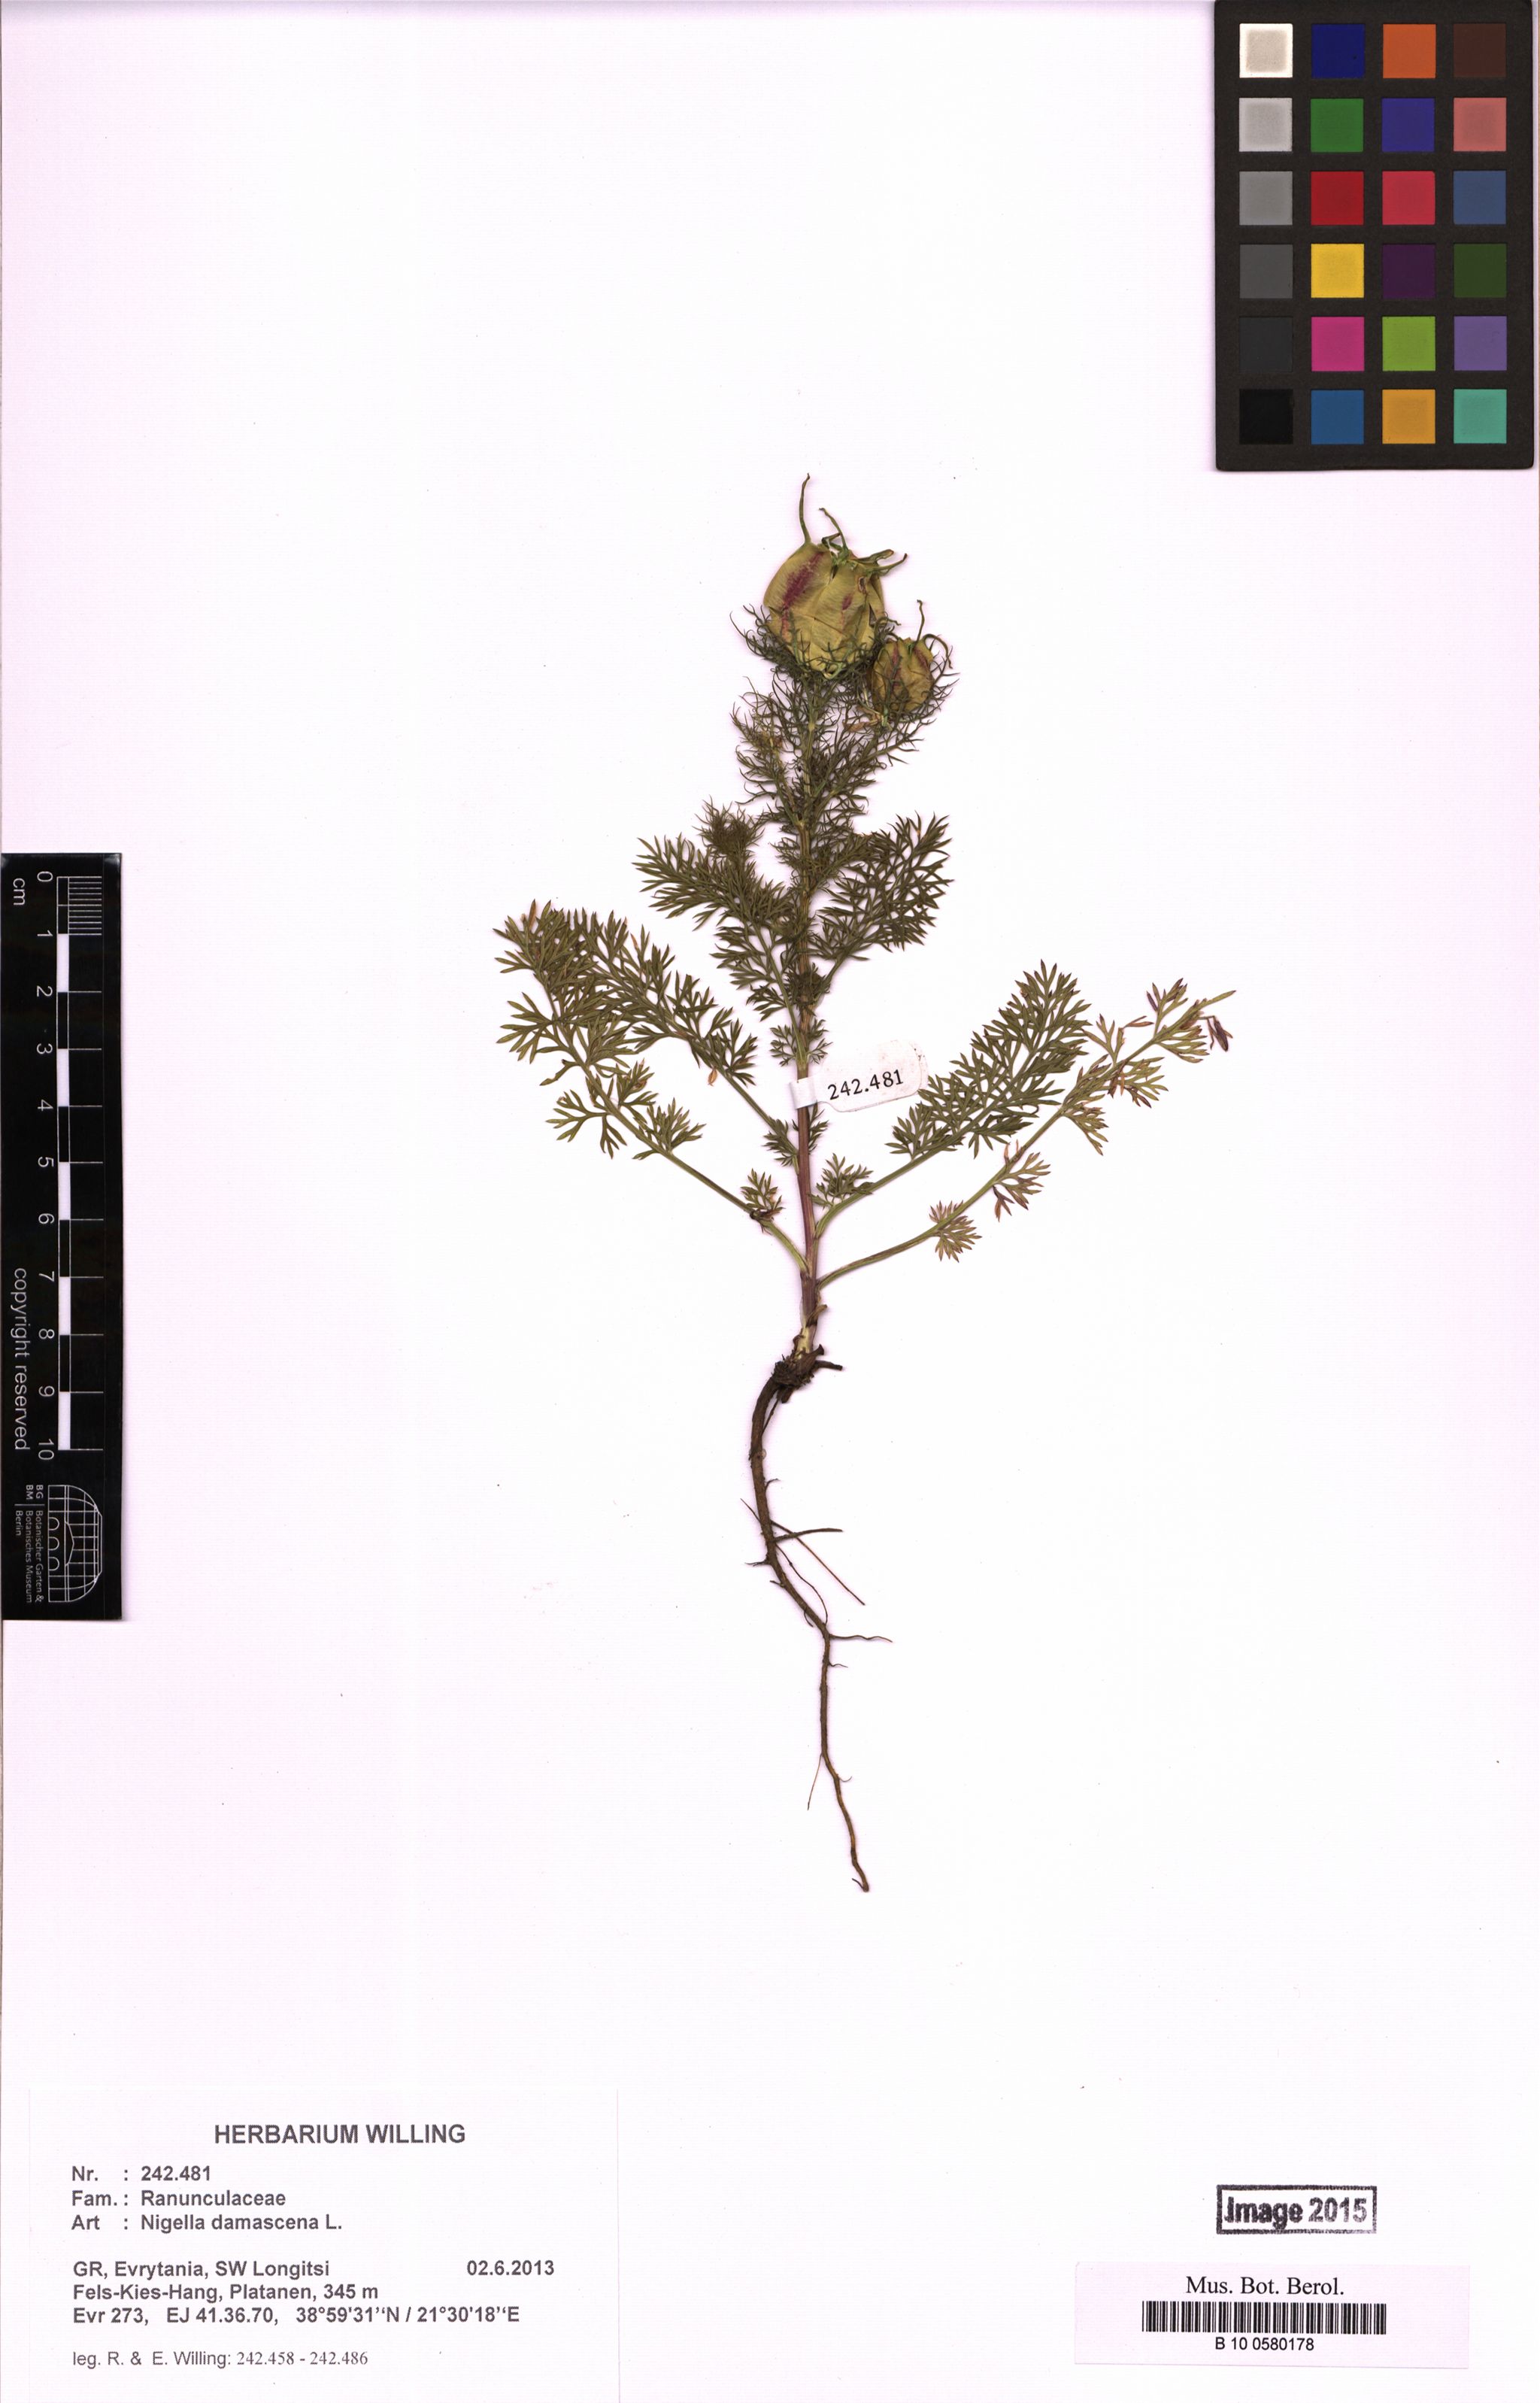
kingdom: Plantae
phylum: Tracheophyta
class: Magnoliopsida
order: Ranunculales
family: Ranunculaceae
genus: Nigella
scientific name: Nigella damascena
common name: Love-in-a-mist
